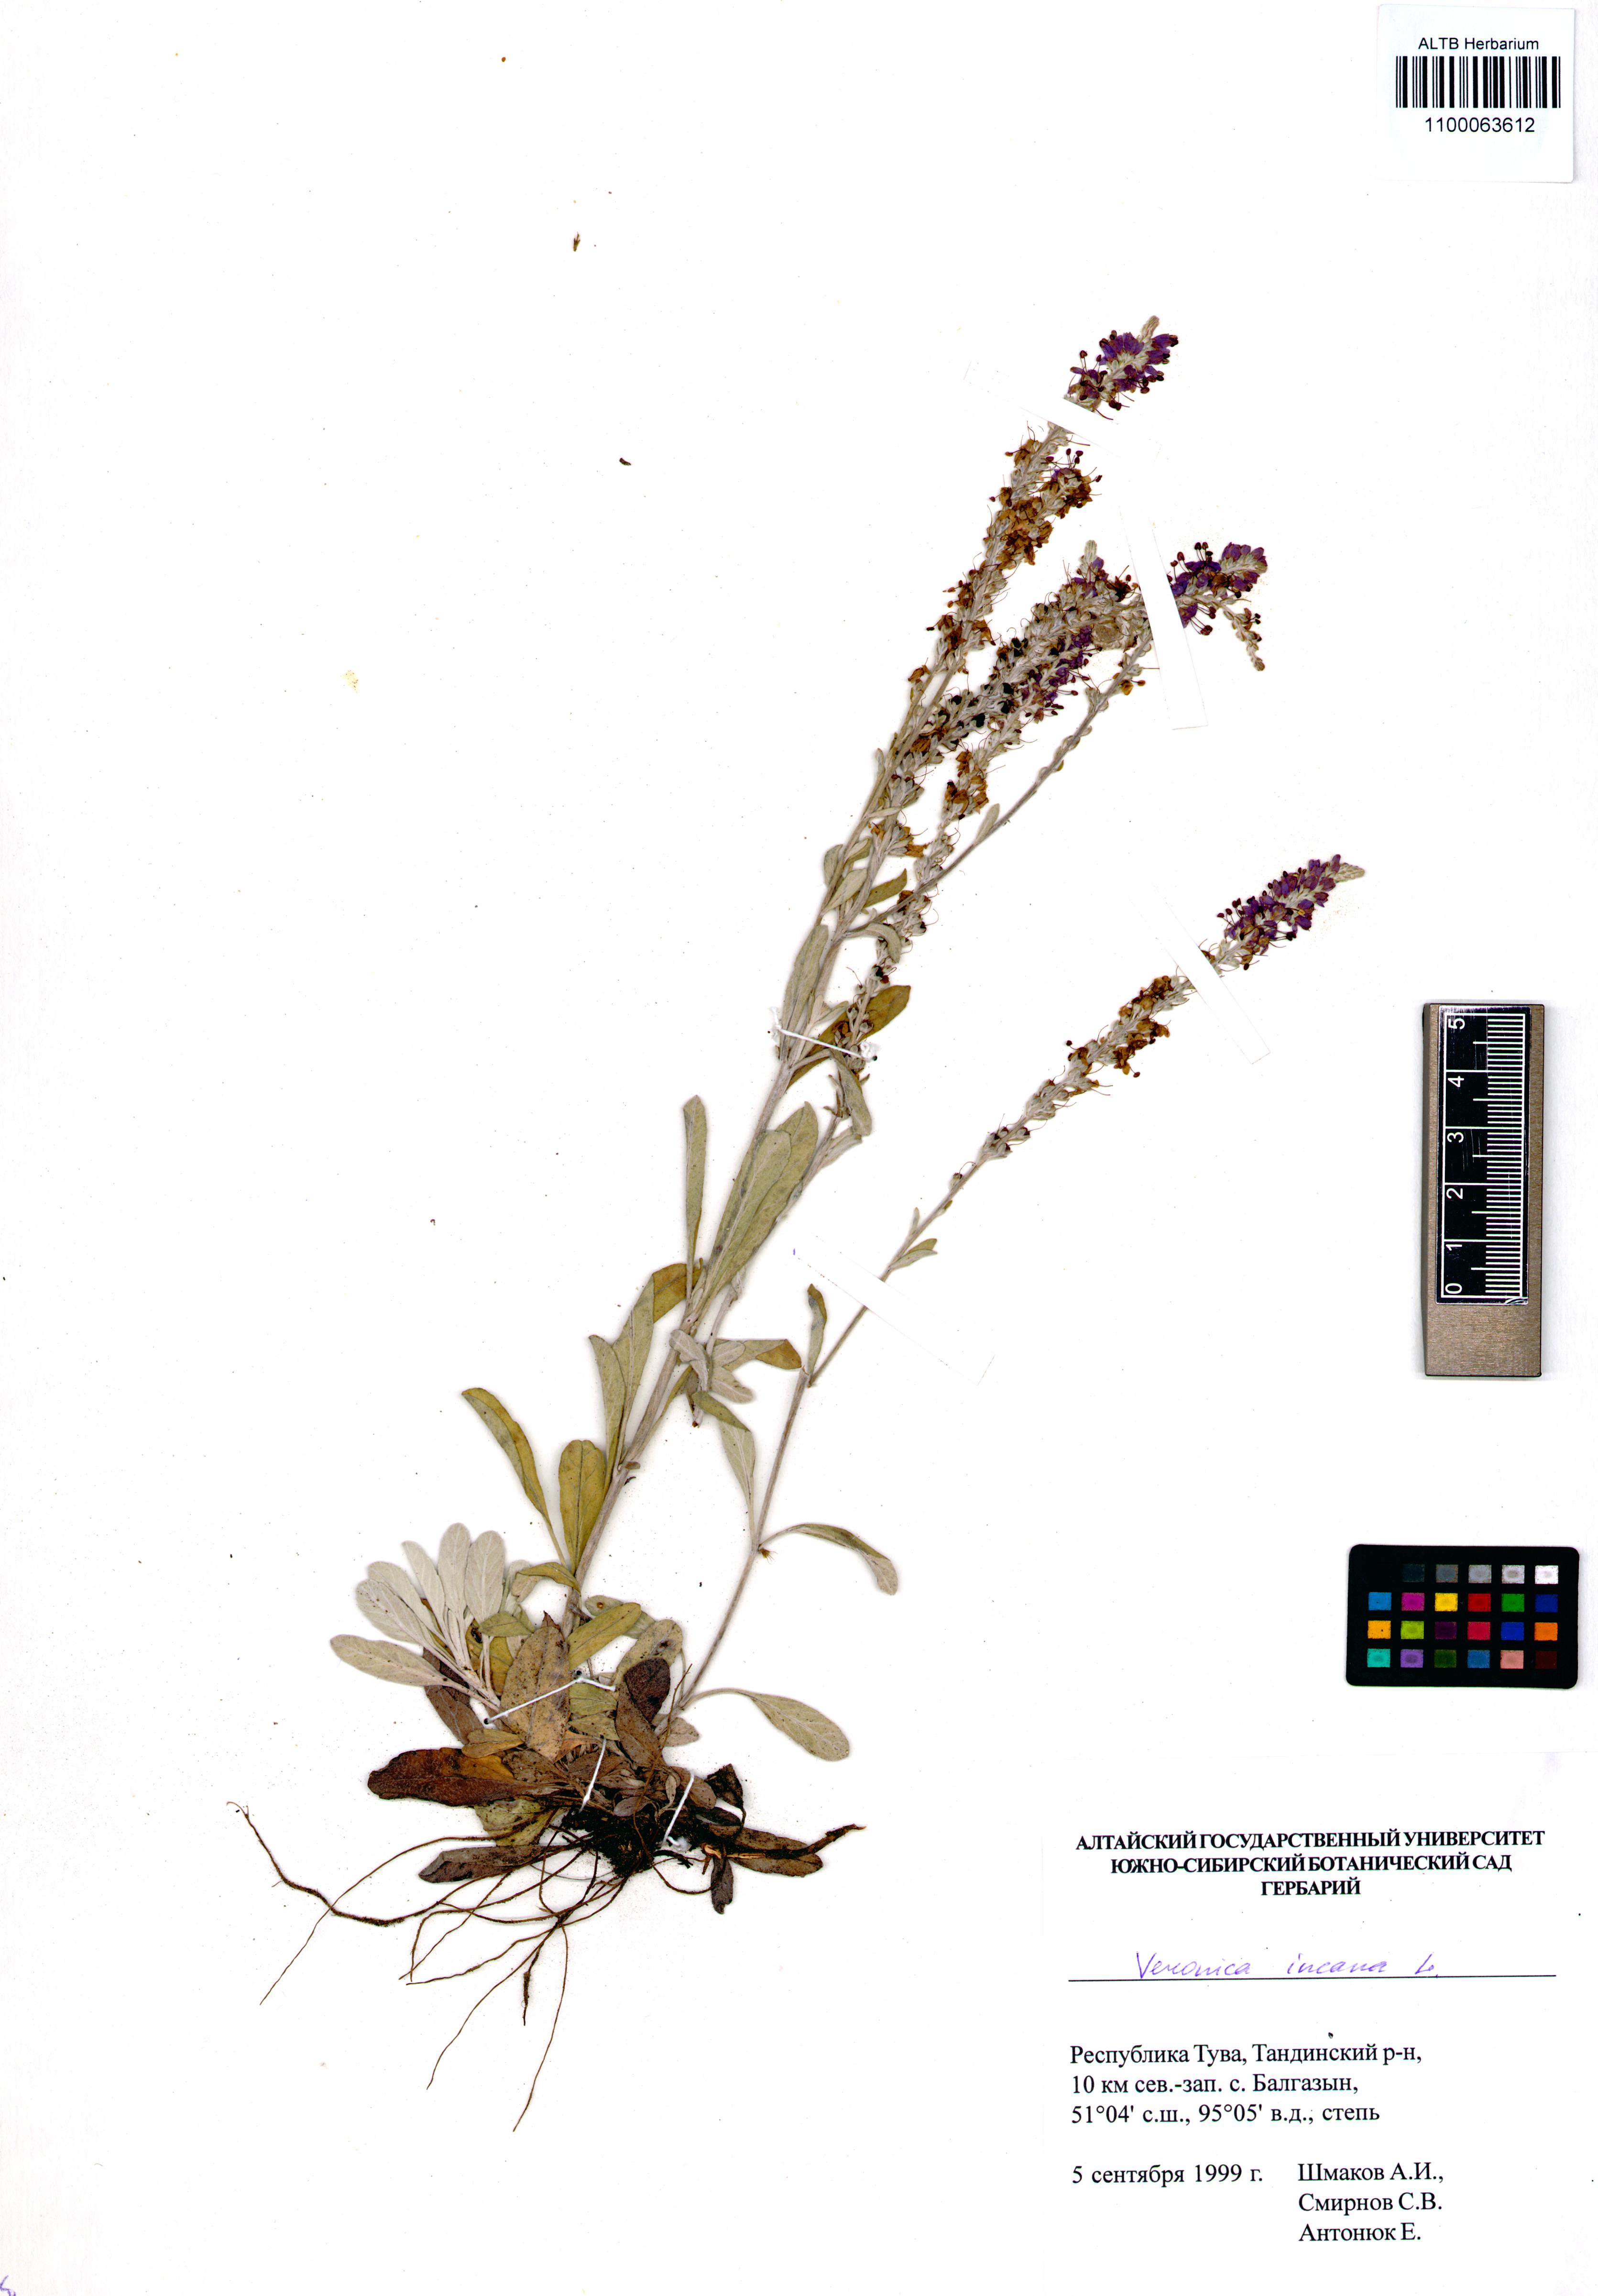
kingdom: Plantae
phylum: Tracheophyta
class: Magnoliopsida
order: Lamiales
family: Plantaginaceae
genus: Veronica
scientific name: Veronica incana
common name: Silver speedwell
